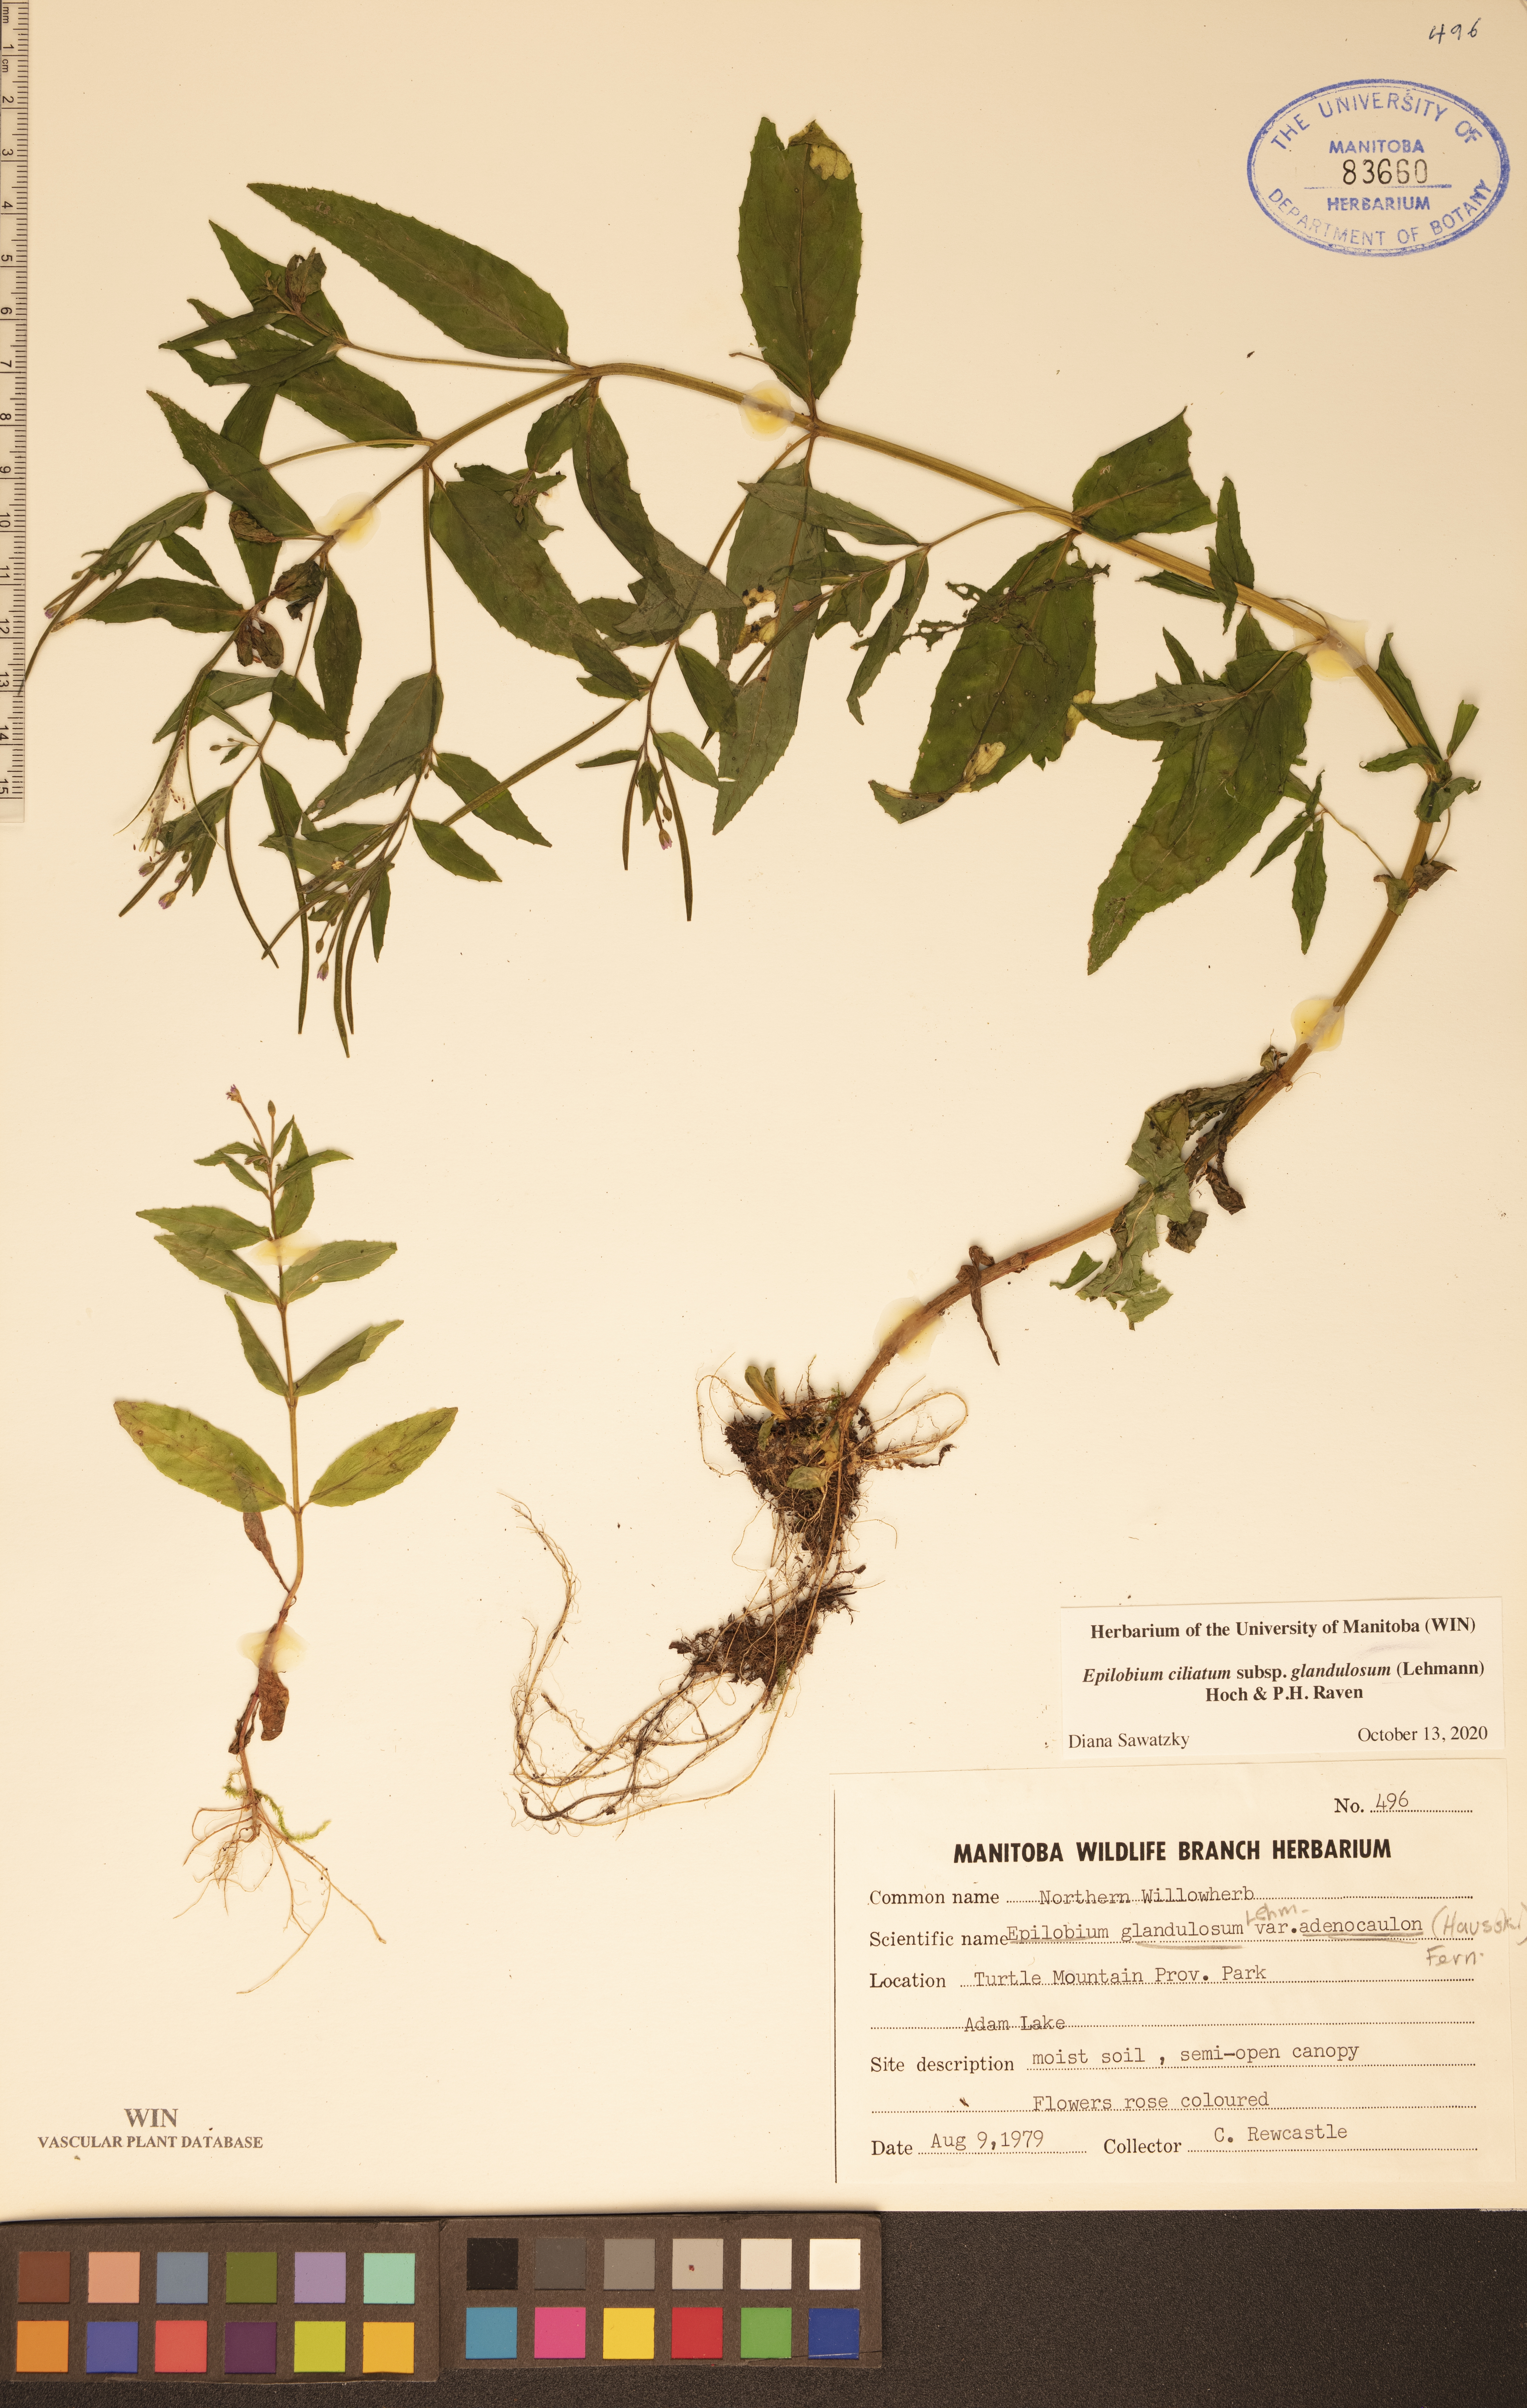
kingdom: Plantae
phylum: Tracheophyta
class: Magnoliopsida
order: Myrtales
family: Onagraceae
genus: Epilobium
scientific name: Epilobium ciliatum
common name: American willowherb
